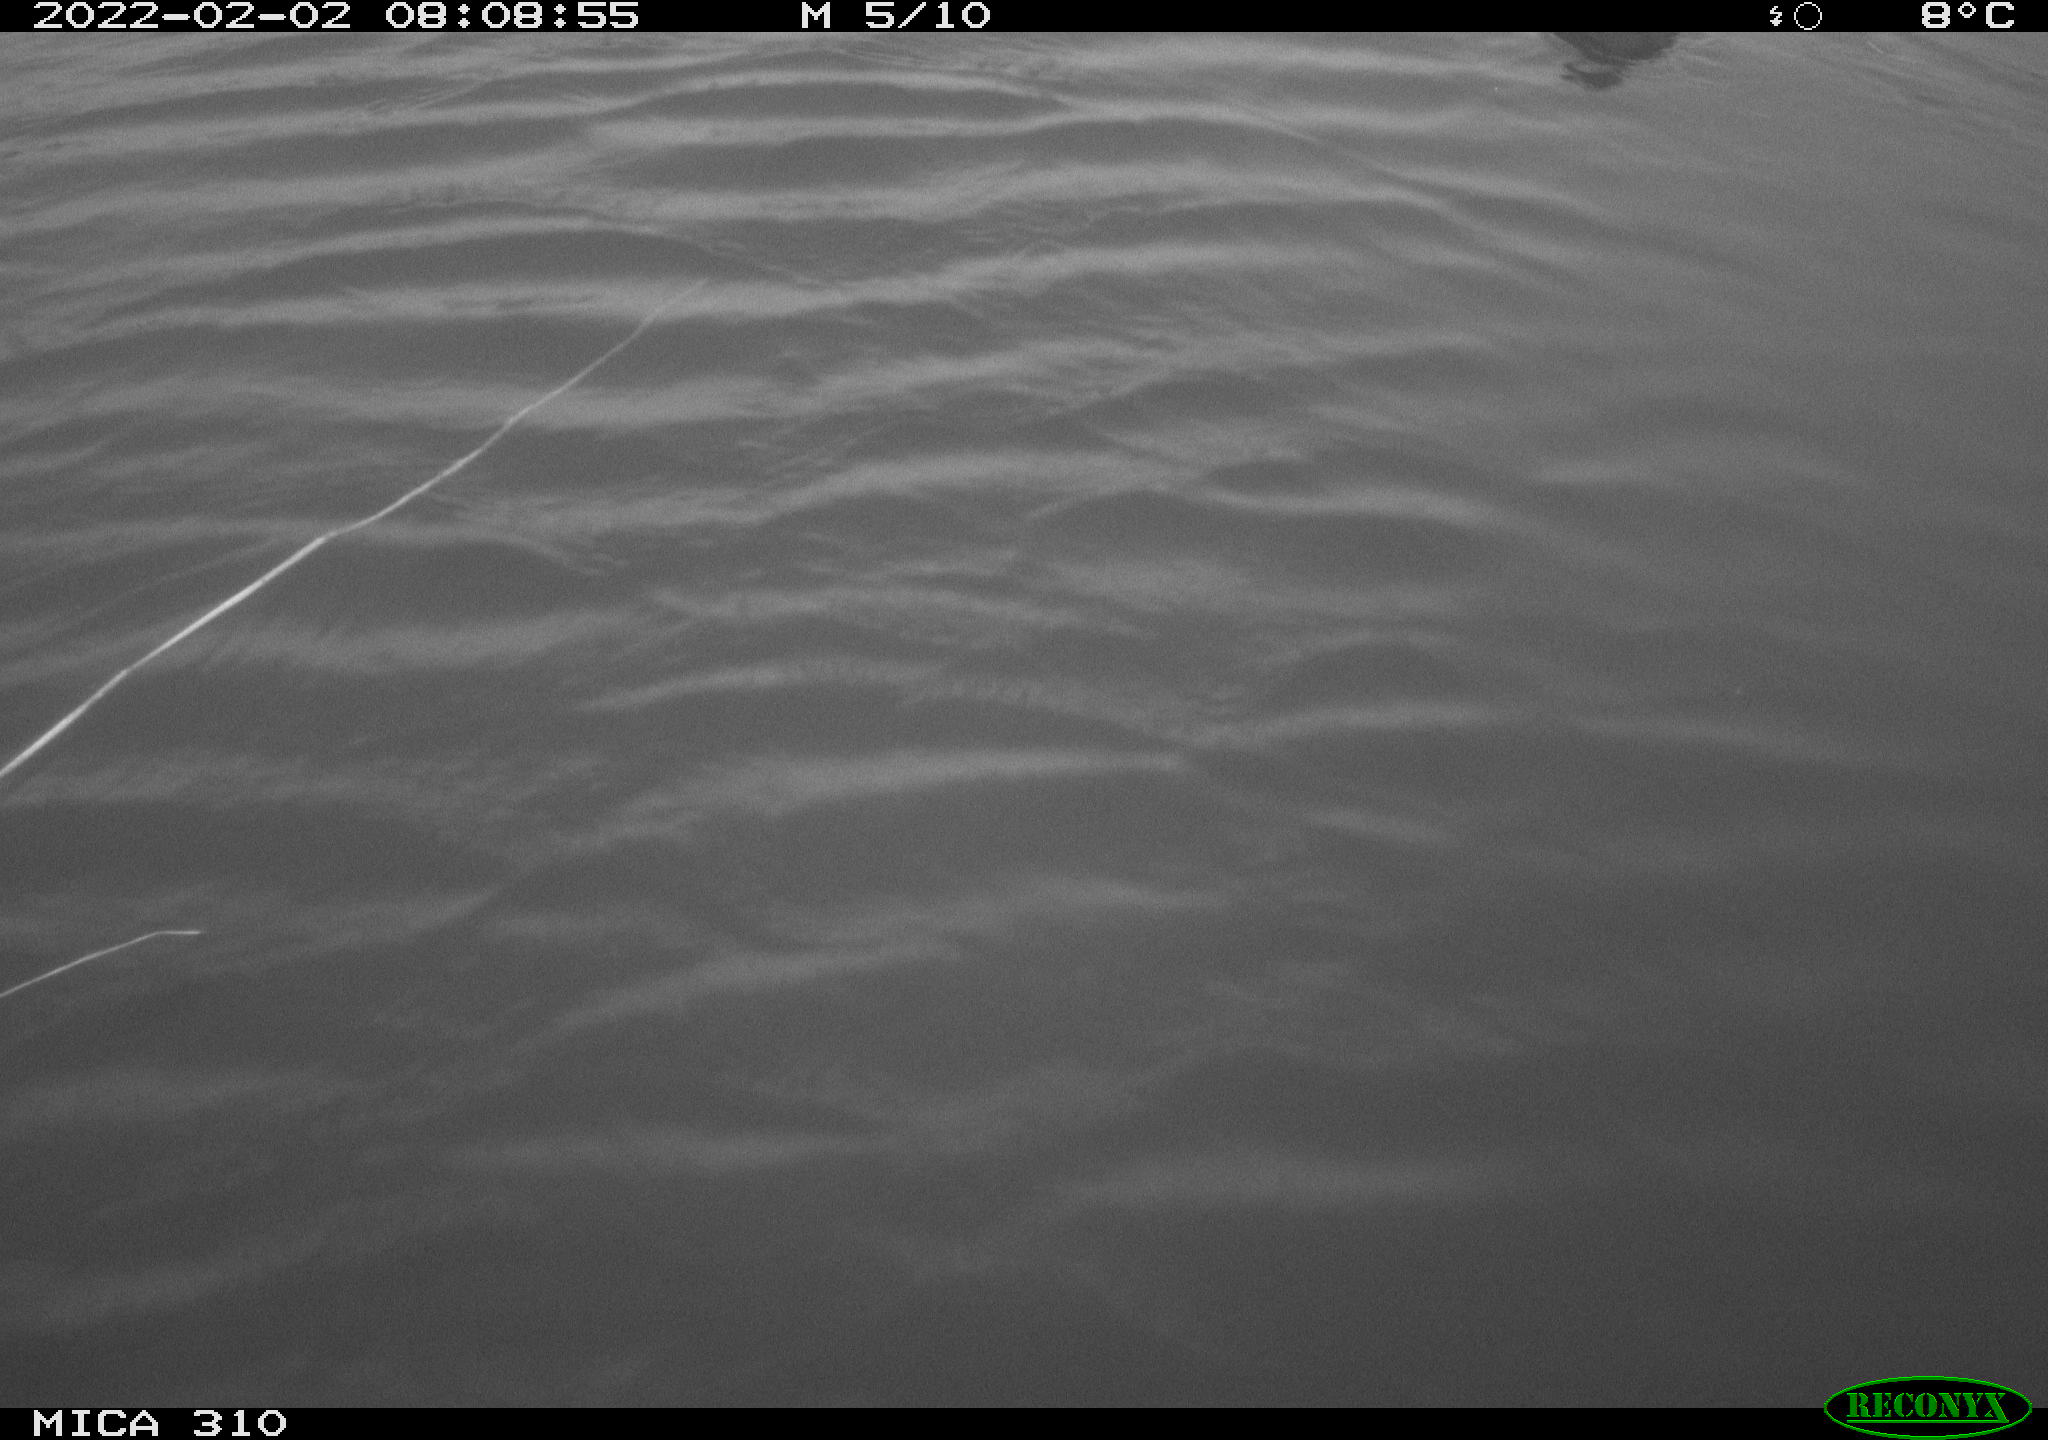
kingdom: Animalia
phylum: Chordata
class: Aves
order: Gruiformes
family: Rallidae
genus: Fulica
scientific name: Fulica atra
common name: Eurasian coot
